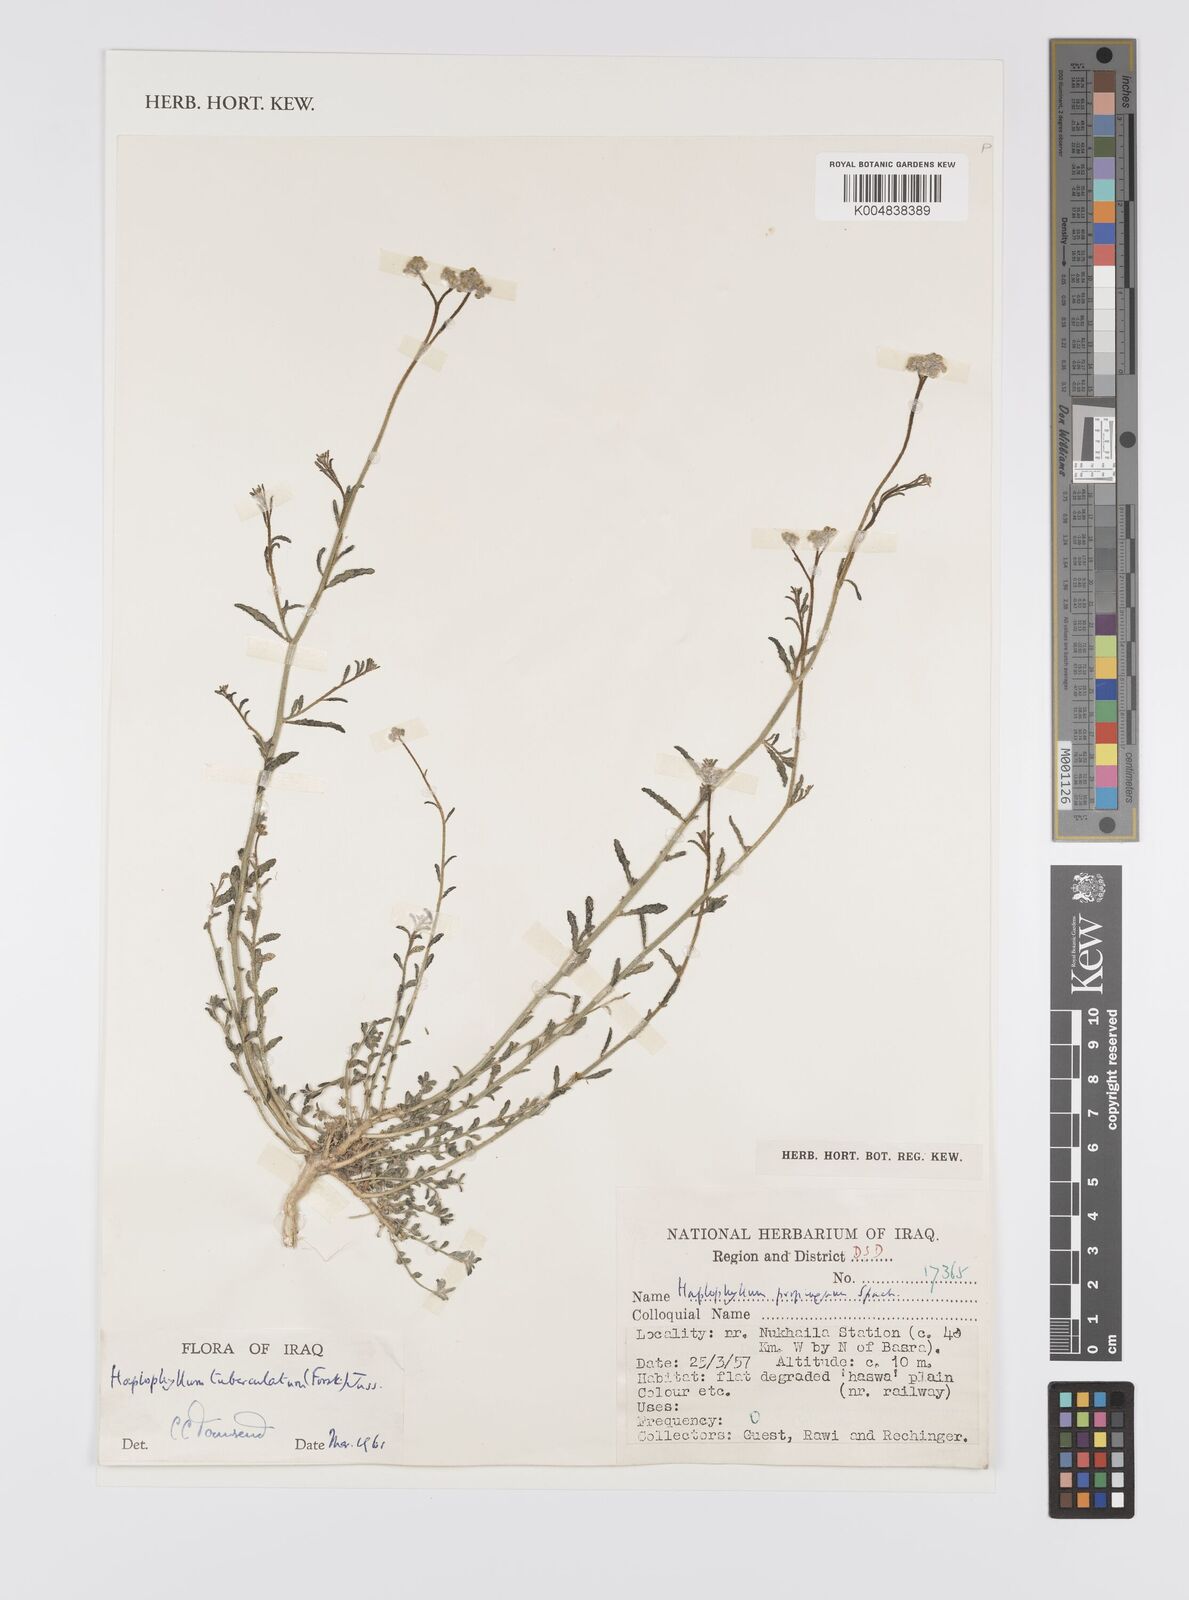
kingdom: Plantae
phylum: Tracheophyta
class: Magnoliopsida
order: Sapindales
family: Rutaceae
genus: Haplophyllum
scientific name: Haplophyllum tuberculatum
